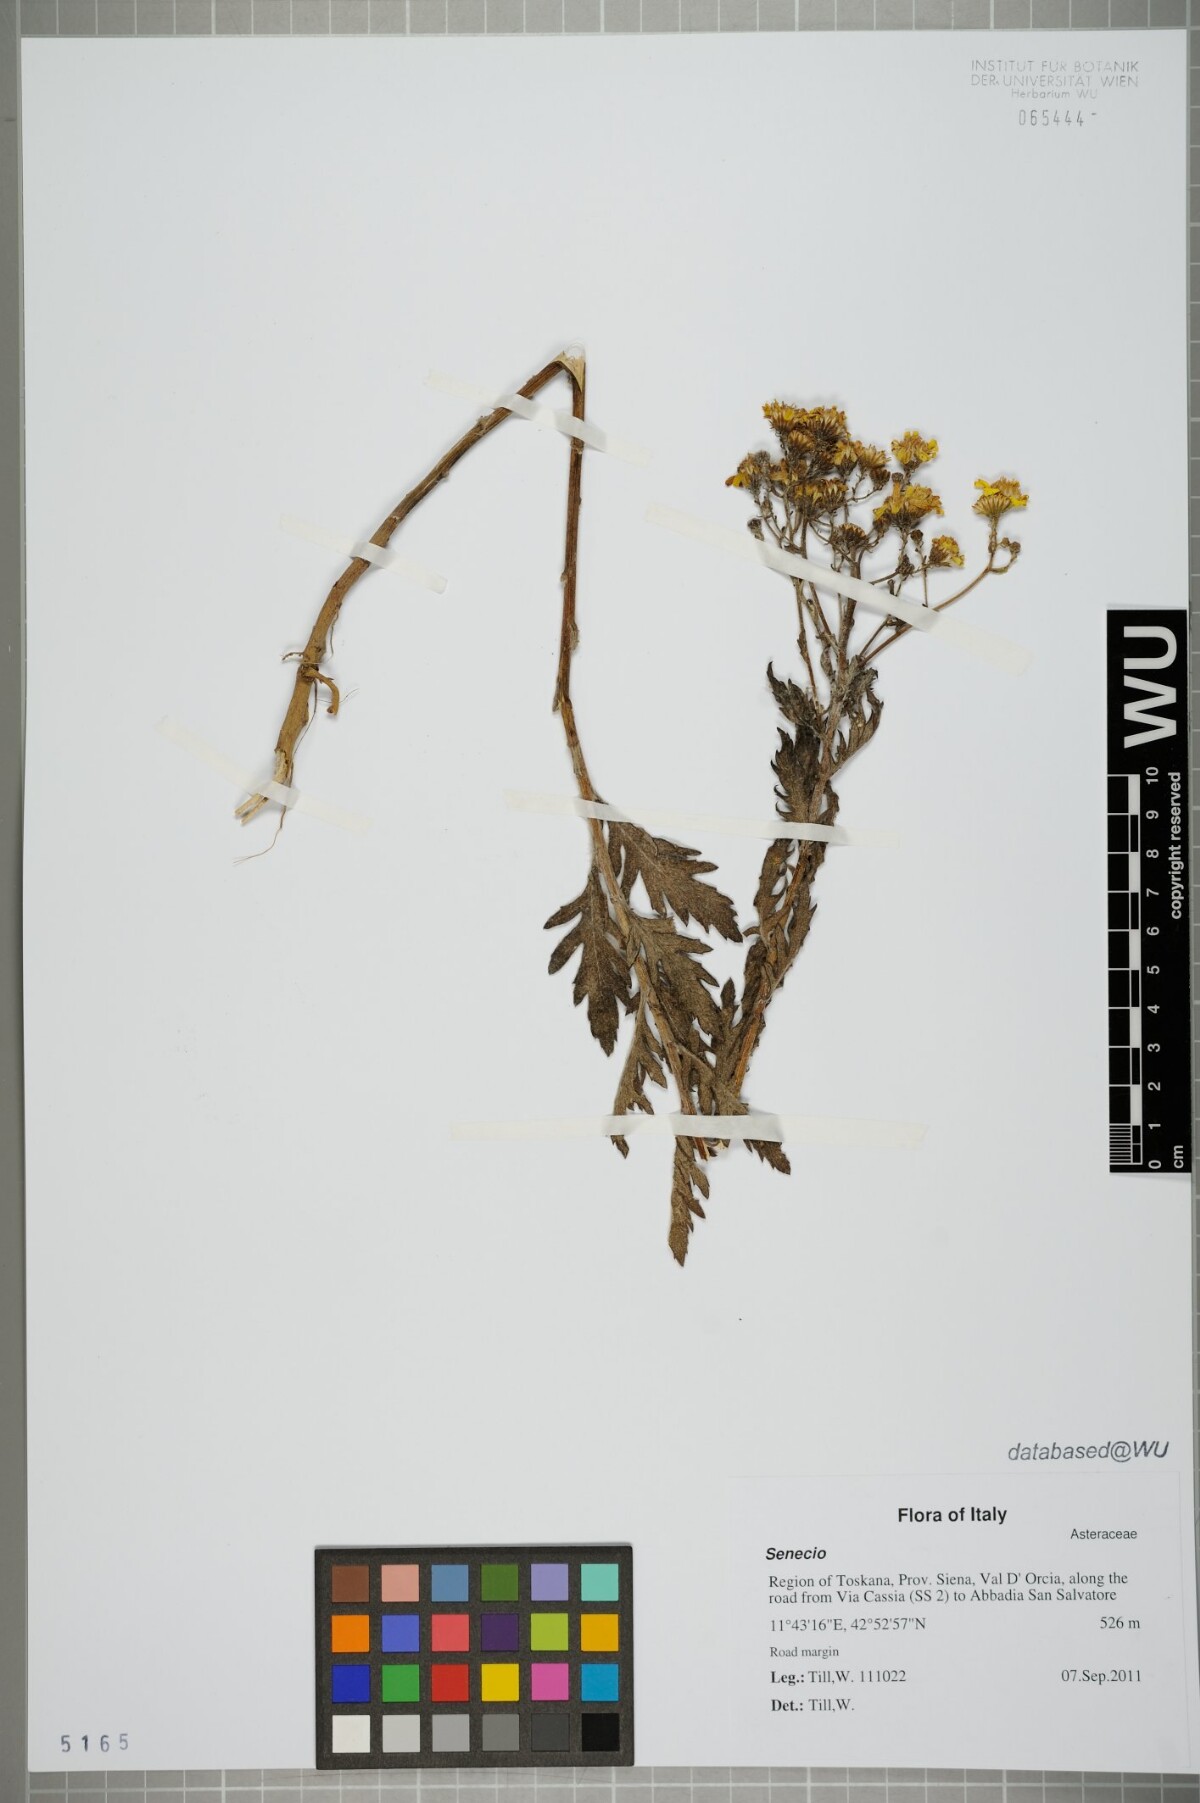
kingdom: Plantae
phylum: Tracheophyta
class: Magnoliopsida
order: Asterales
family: Asteraceae
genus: Senecio
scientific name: Senecio
